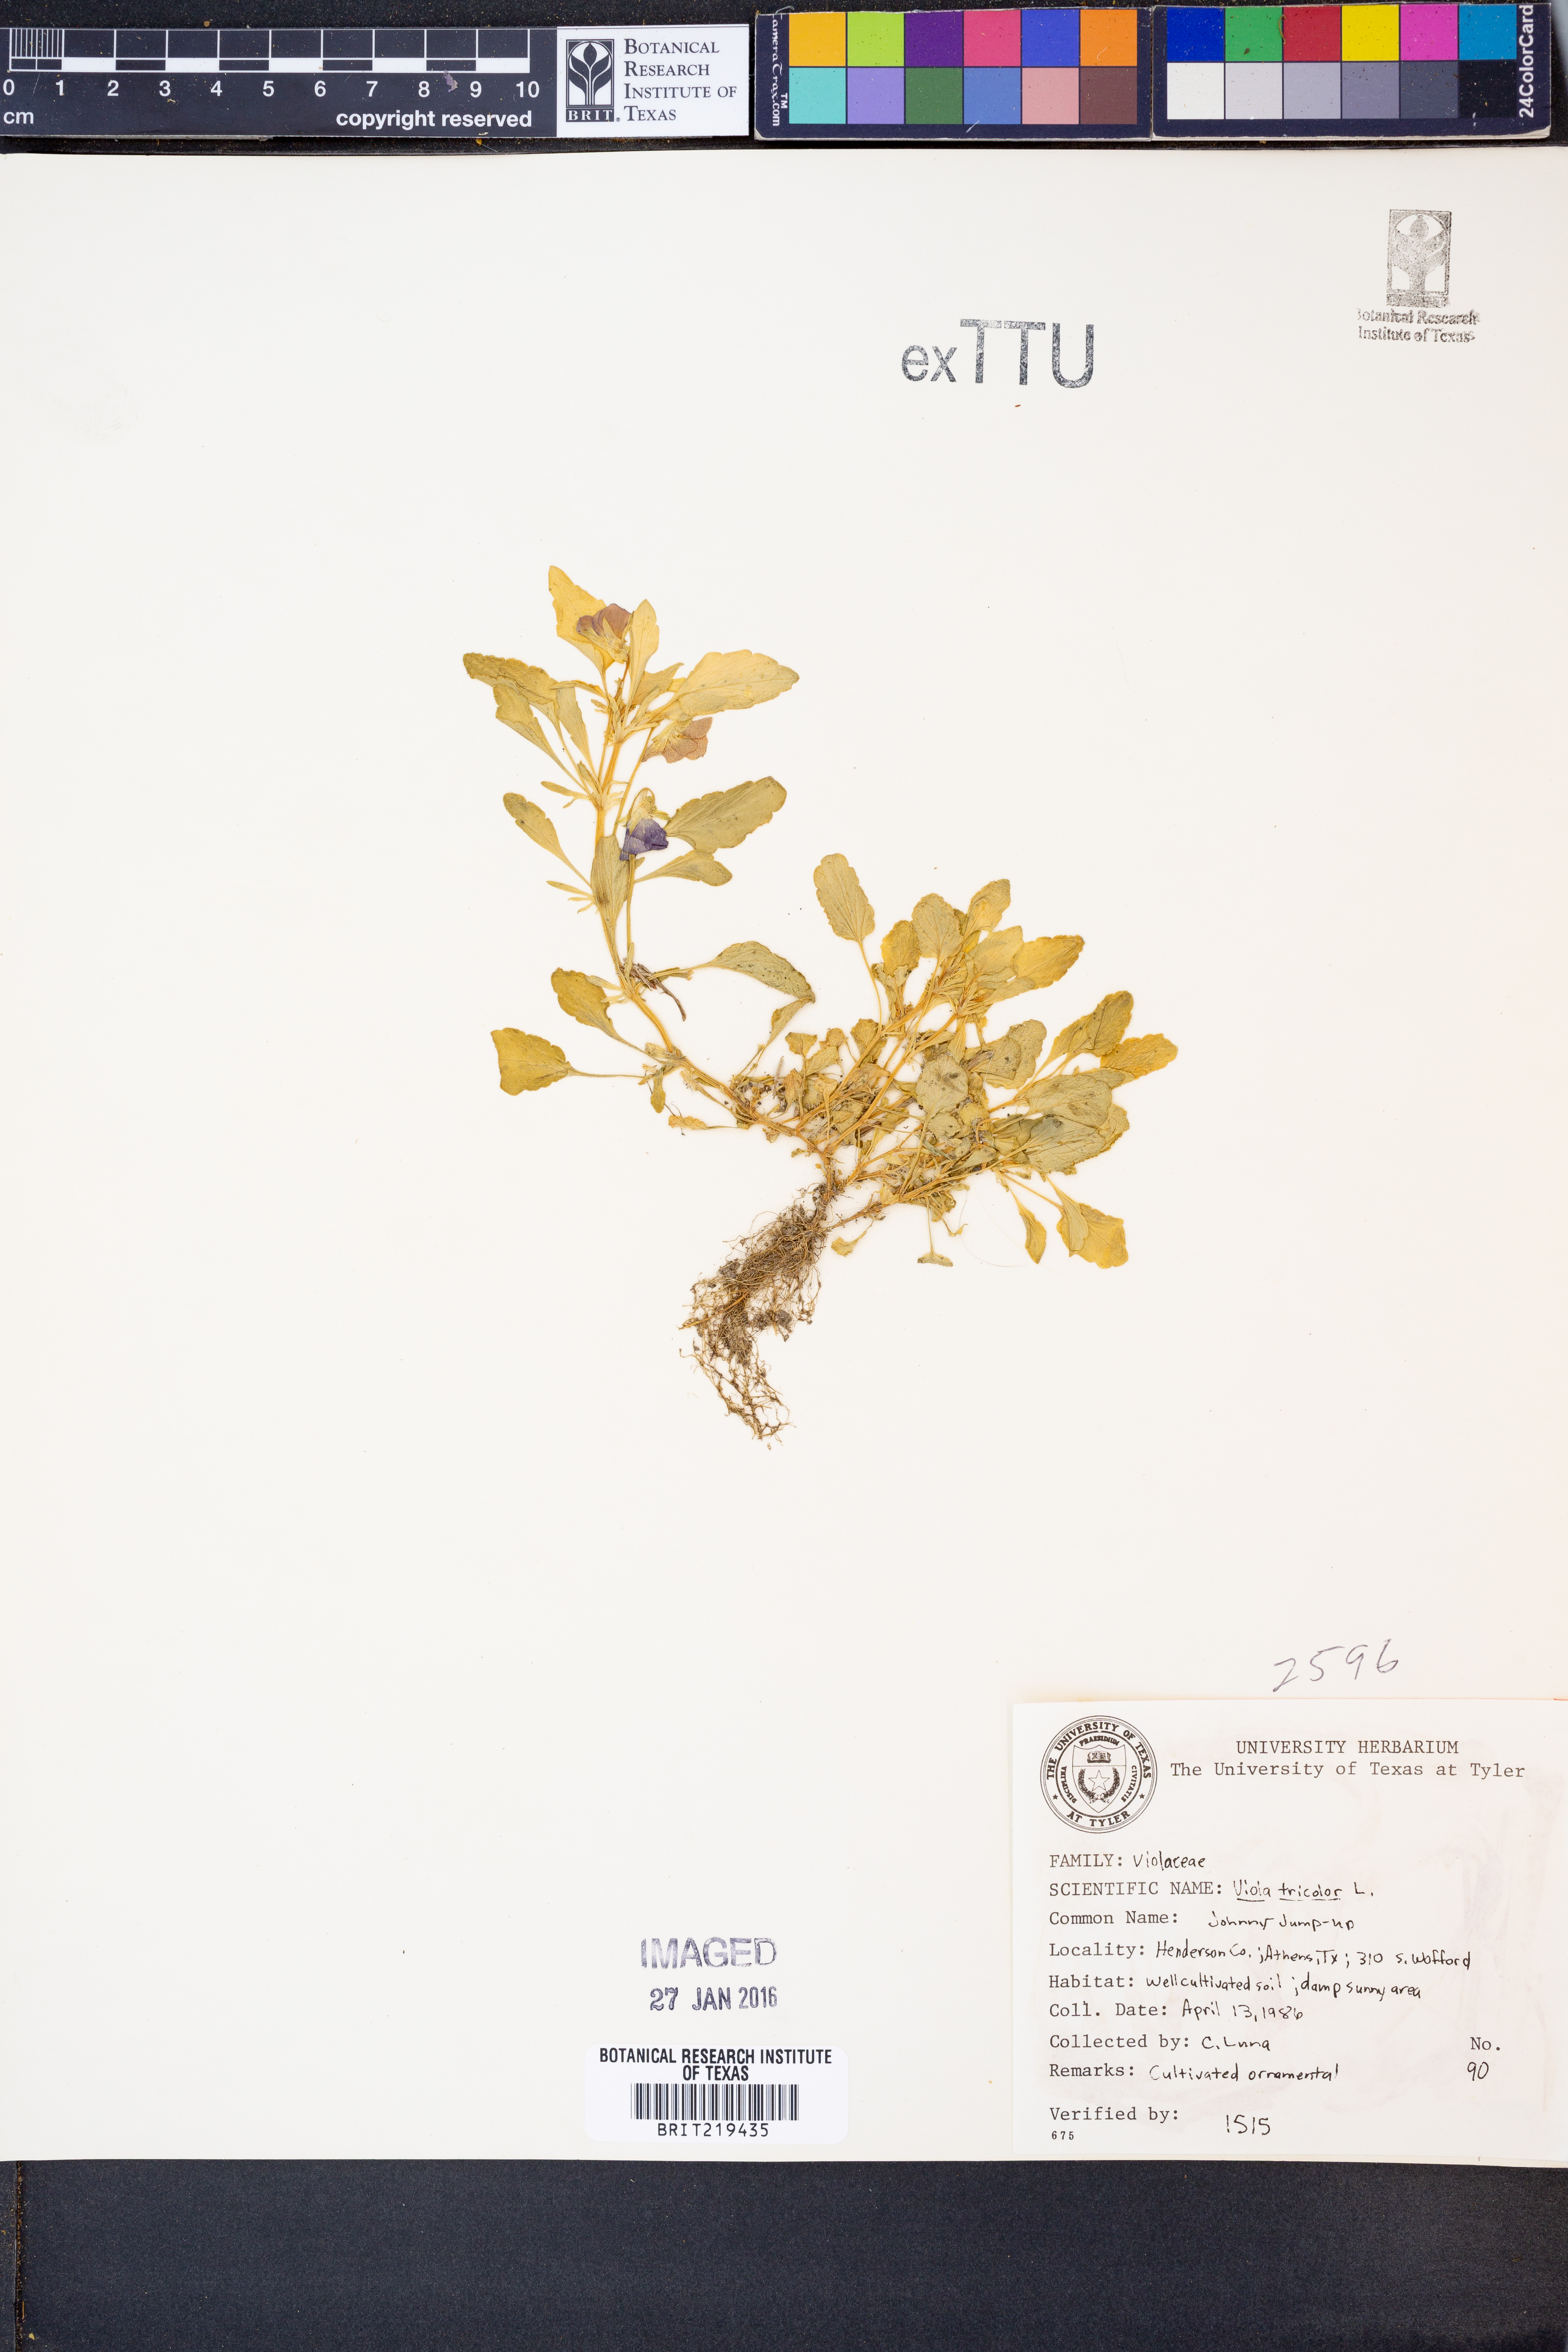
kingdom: Plantae
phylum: Tracheophyta
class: Magnoliopsida
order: Malpighiales
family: Violaceae
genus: Viola
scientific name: Viola tricolor
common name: Pansy
